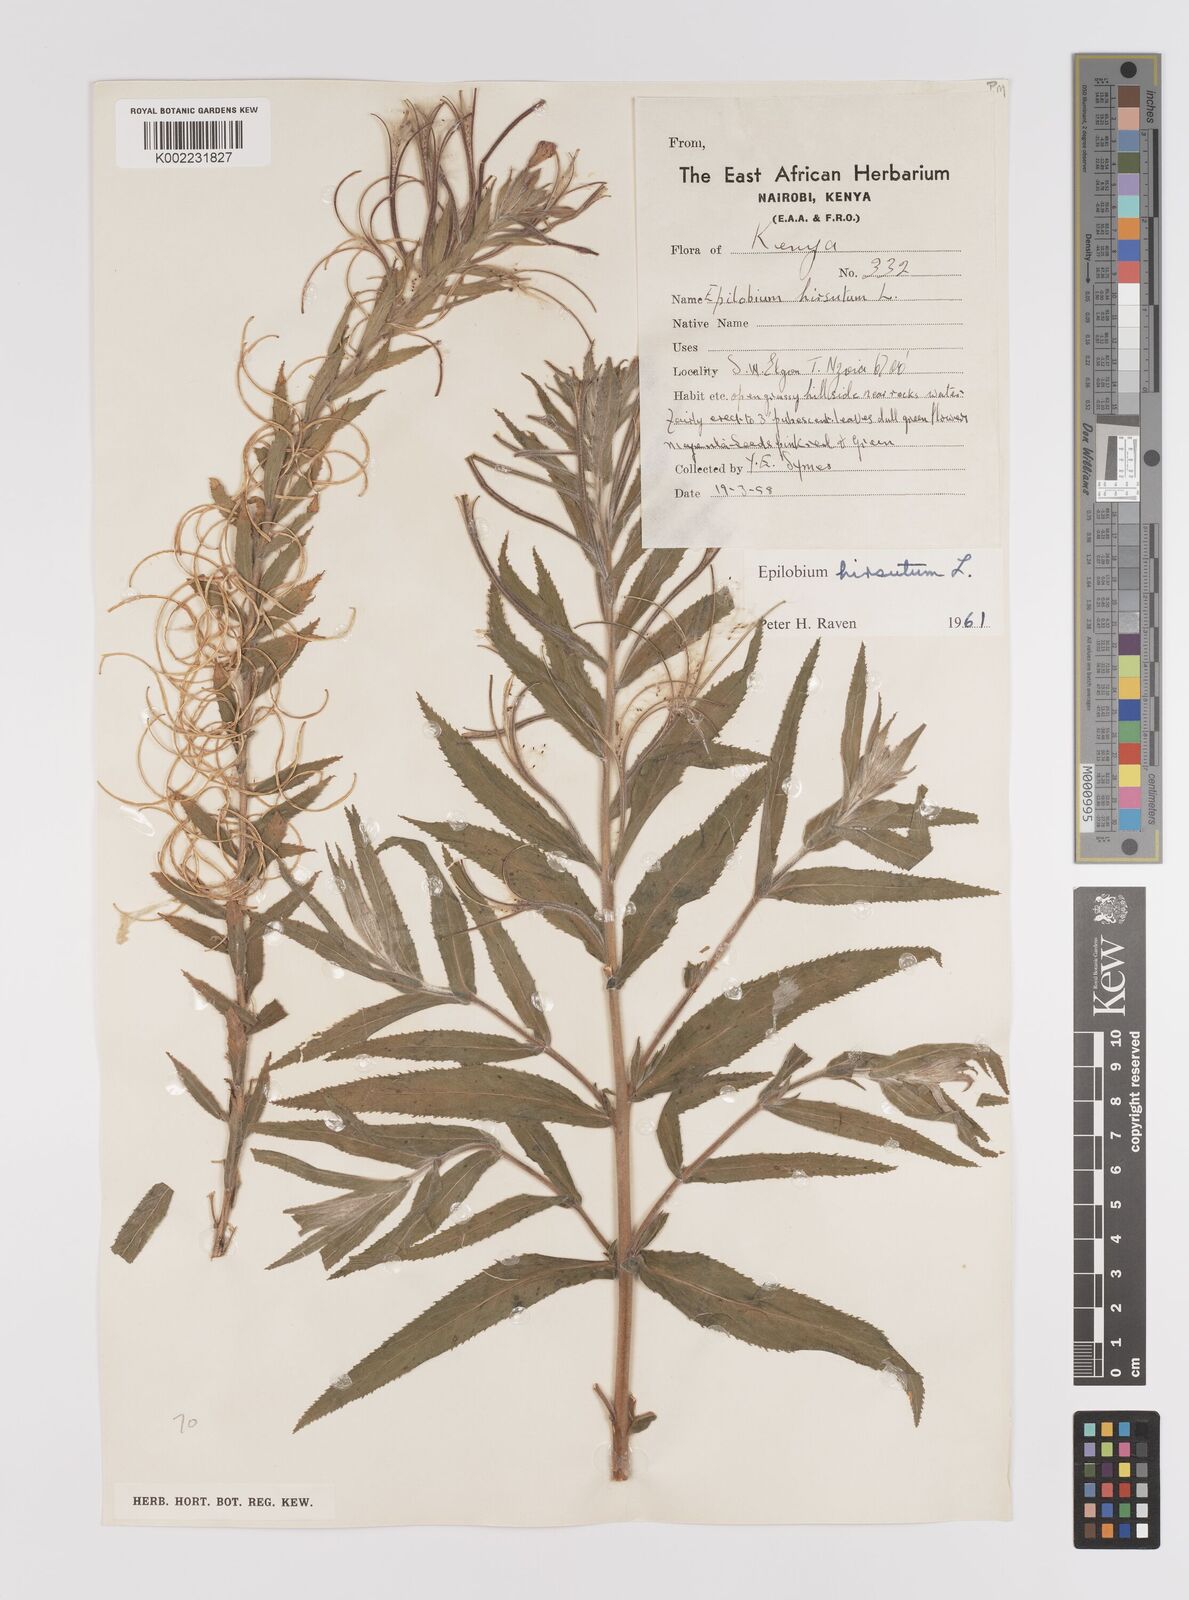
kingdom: Plantae
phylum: Tracheophyta
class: Magnoliopsida
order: Myrtales
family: Onagraceae
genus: Epilobium
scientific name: Epilobium hirsutum
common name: Great willowherb
